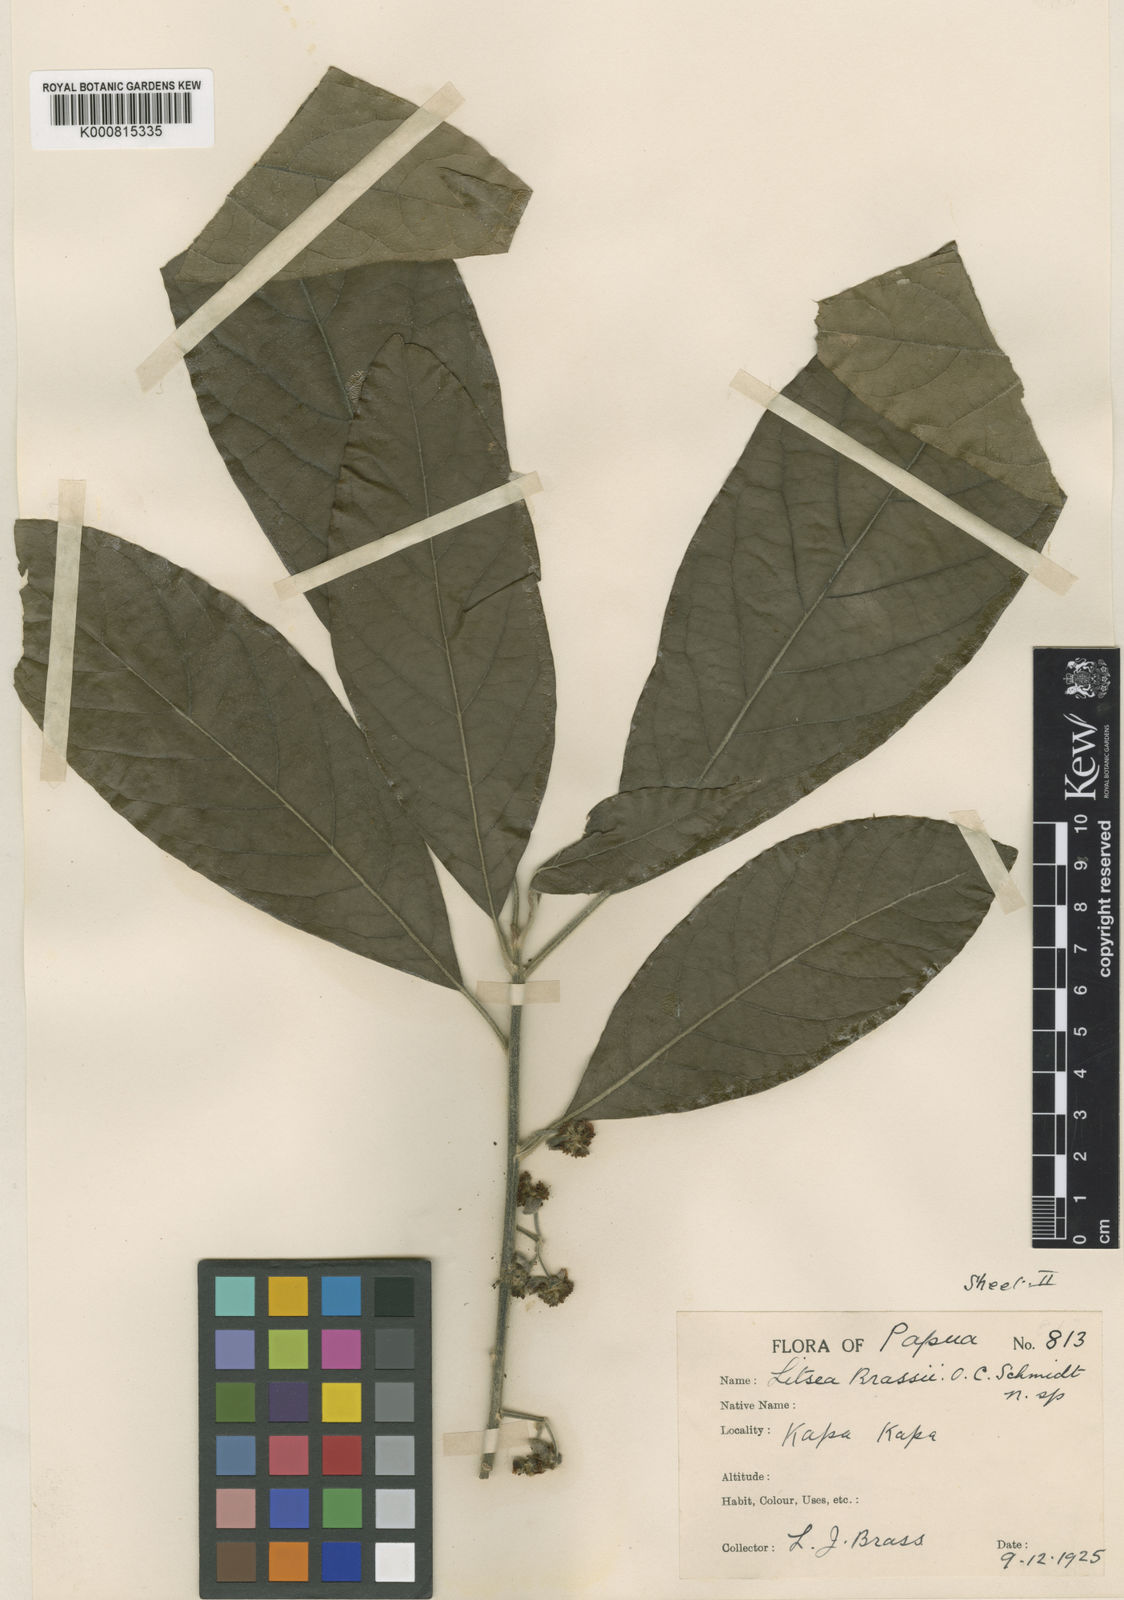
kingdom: Plantae
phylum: Tracheophyta
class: Magnoliopsida
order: Laurales
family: Lauraceae
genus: Litsea
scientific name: Litsea glutinosa
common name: Indian-laurel
